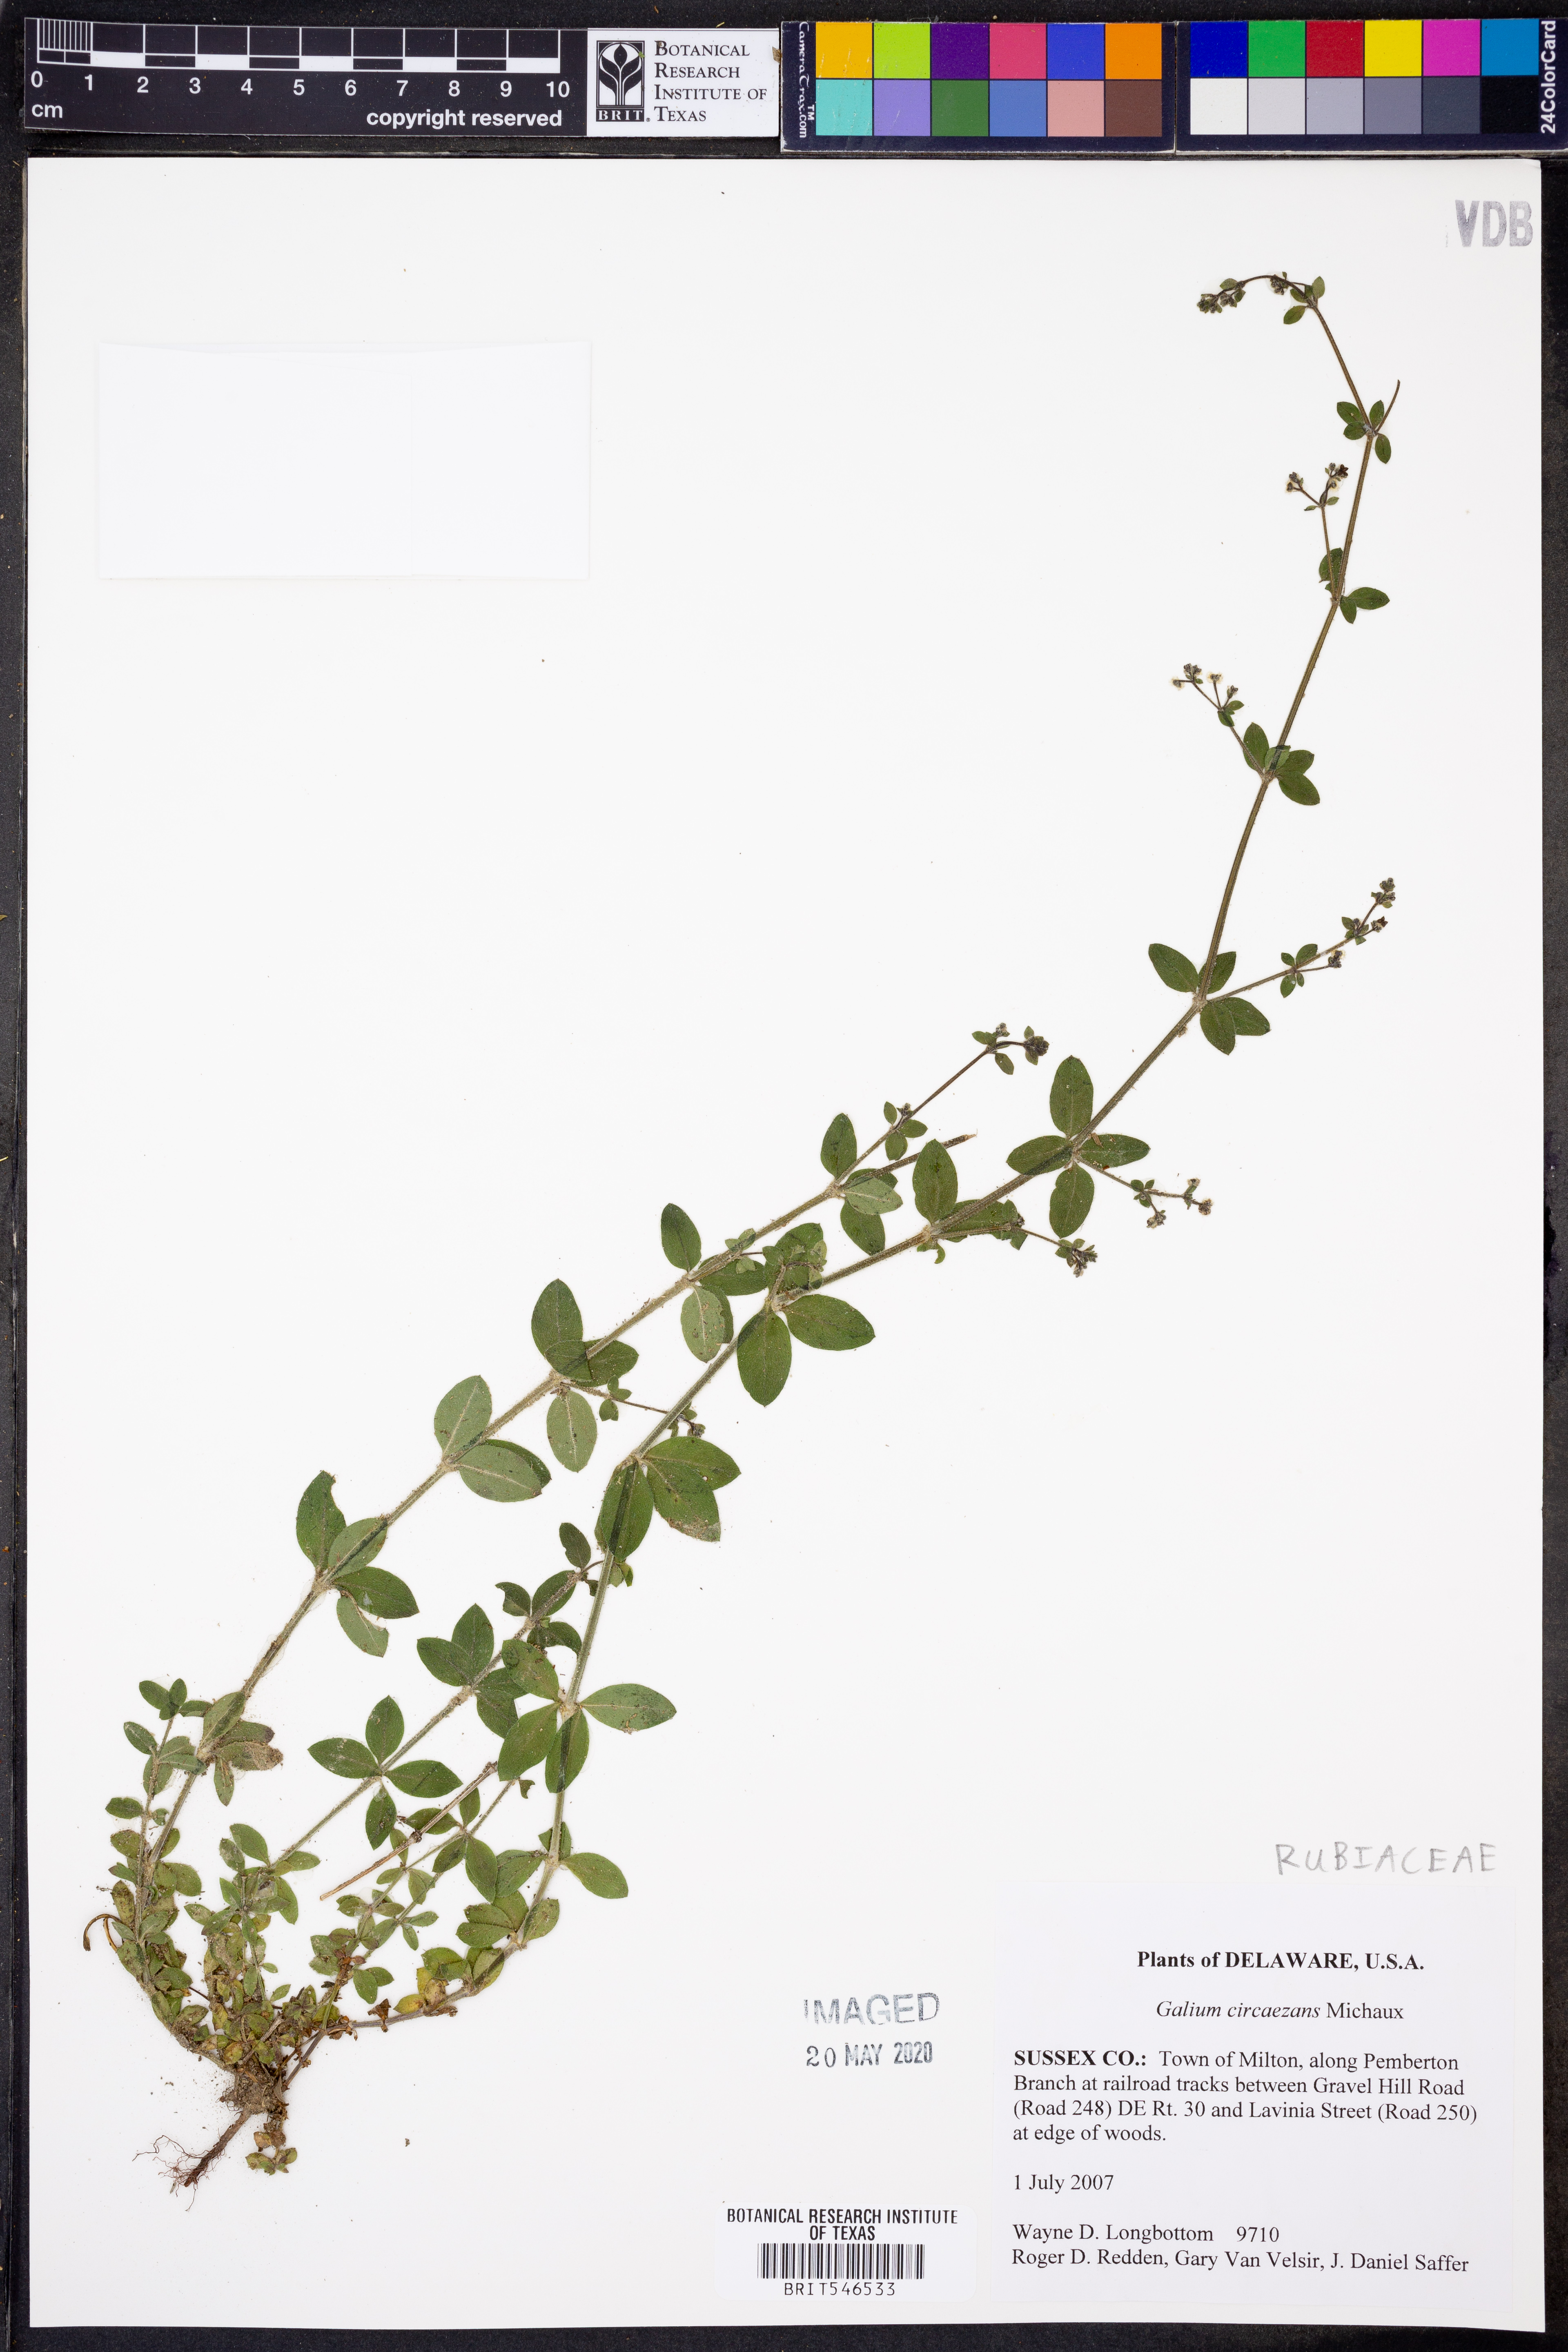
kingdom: Plantae
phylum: Tracheophyta
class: Magnoliopsida
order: Gentianales
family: Rubiaceae
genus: Galium
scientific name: Galium circaezans
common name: Forest bedstraw
